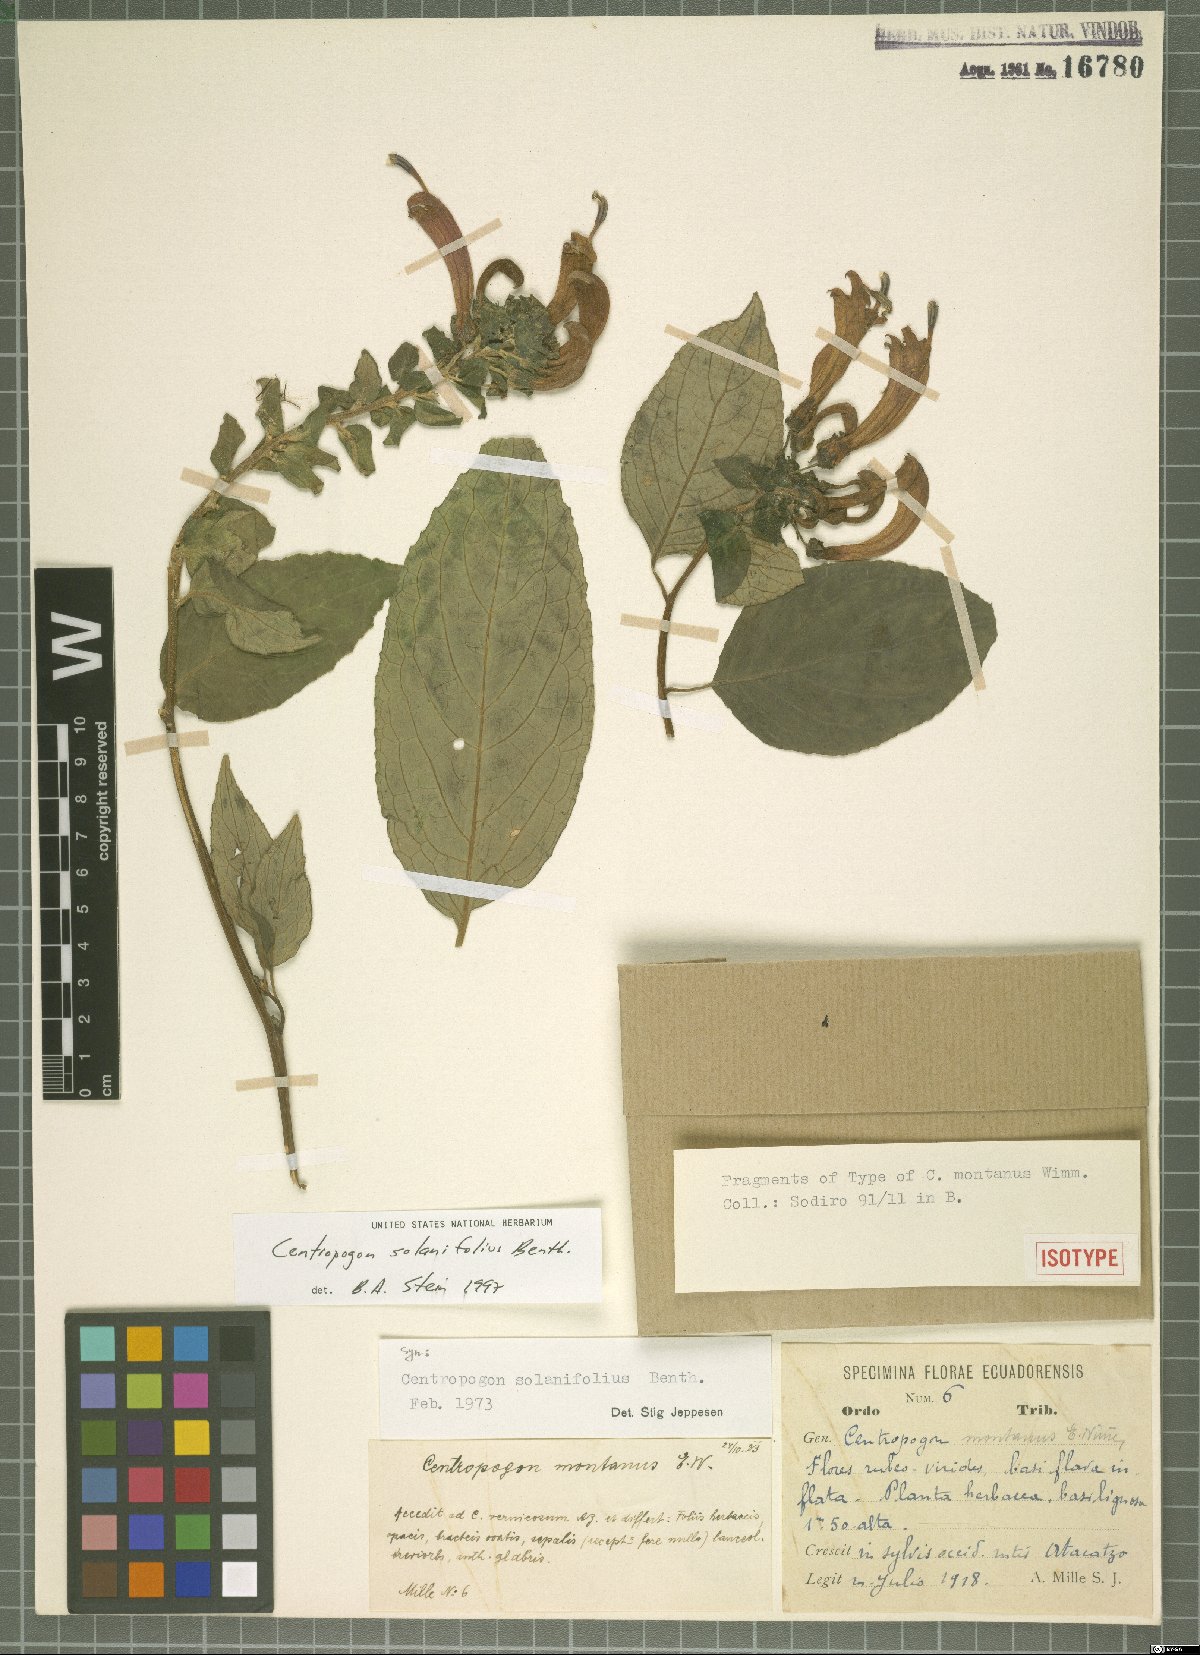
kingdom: Plantae
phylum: Tracheophyta
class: Magnoliopsida
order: Asterales
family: Campanulaceae
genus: Centropogon
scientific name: Centropogon solanifolius
